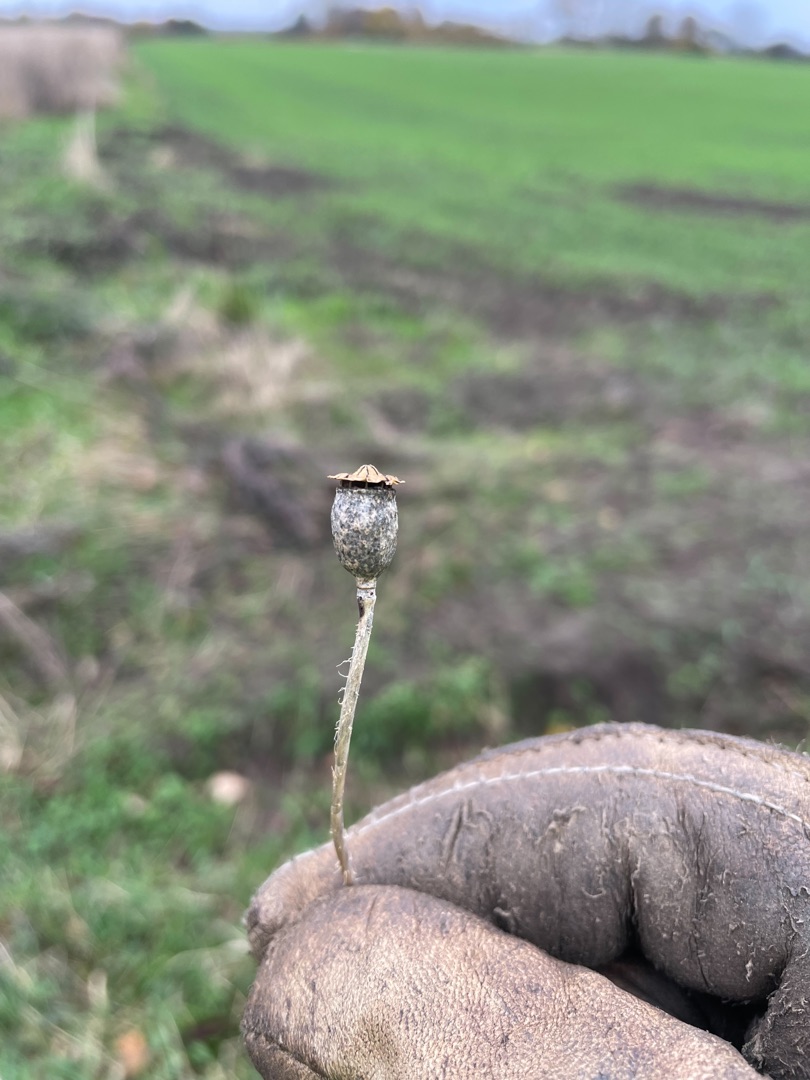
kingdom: Plantae
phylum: Tracheophyta
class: Magnoliopsida
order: Ranunculales
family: Papaveraceae
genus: Papaver
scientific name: Papaver rhoeas
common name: Korn-valmue
